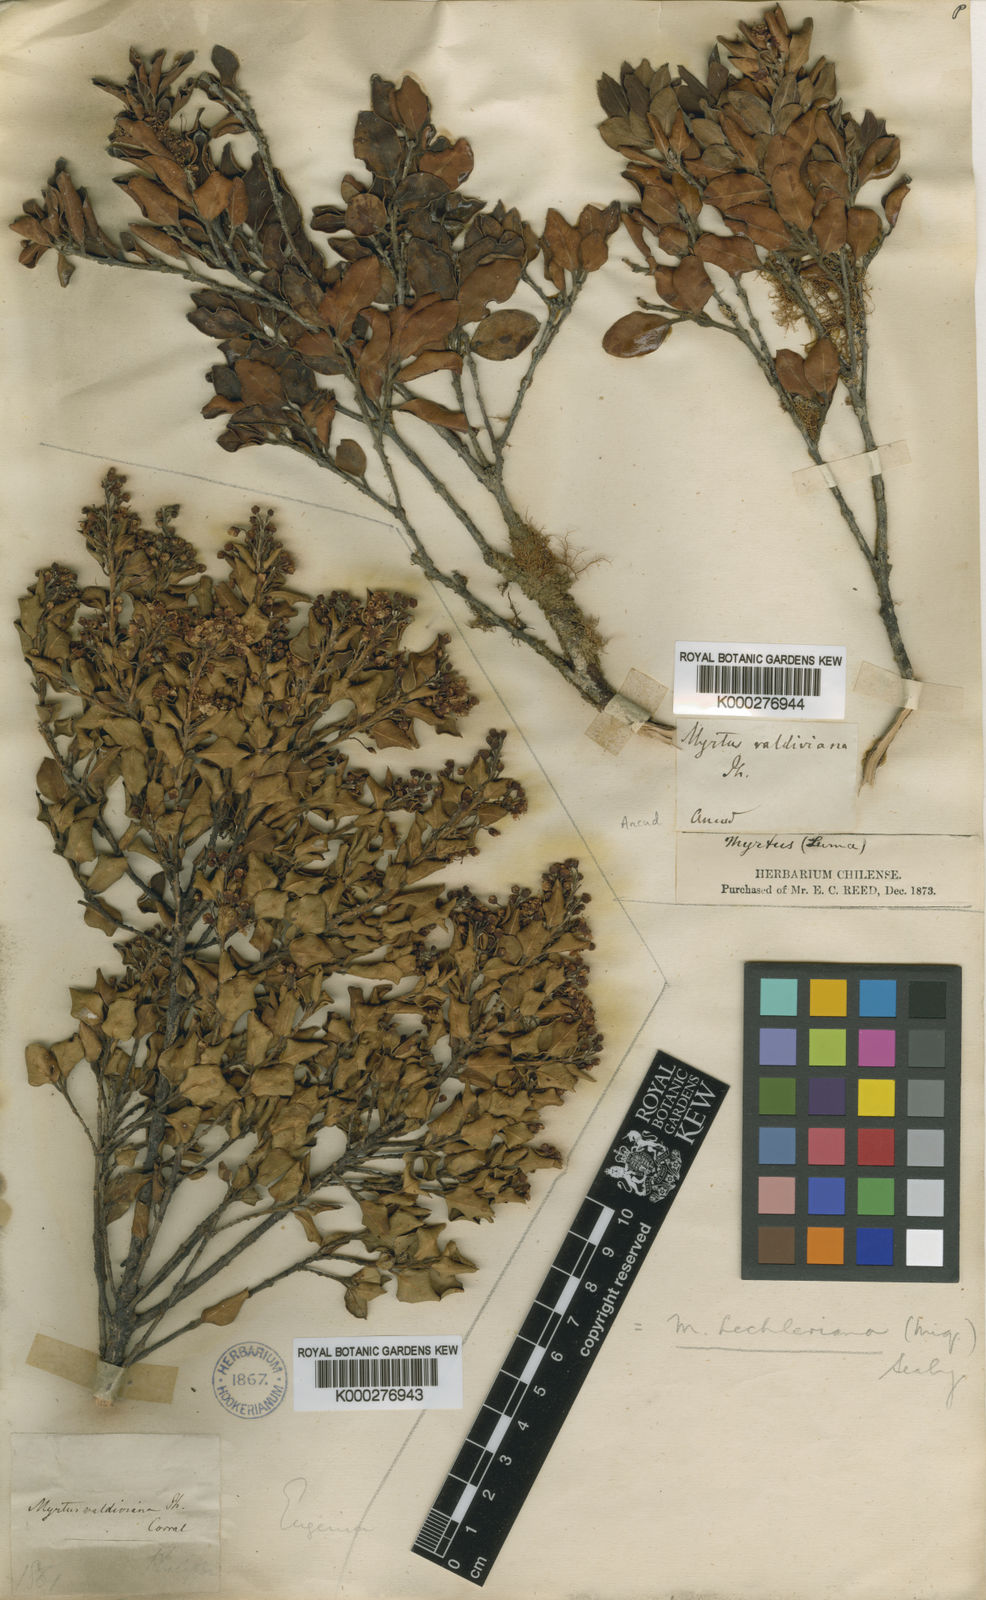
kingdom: Plantae
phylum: Tracheophyta
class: Magnoliopsida
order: Myrtales
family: Myrtaceae
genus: Amomyrtus
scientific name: Amomyrtus luma
